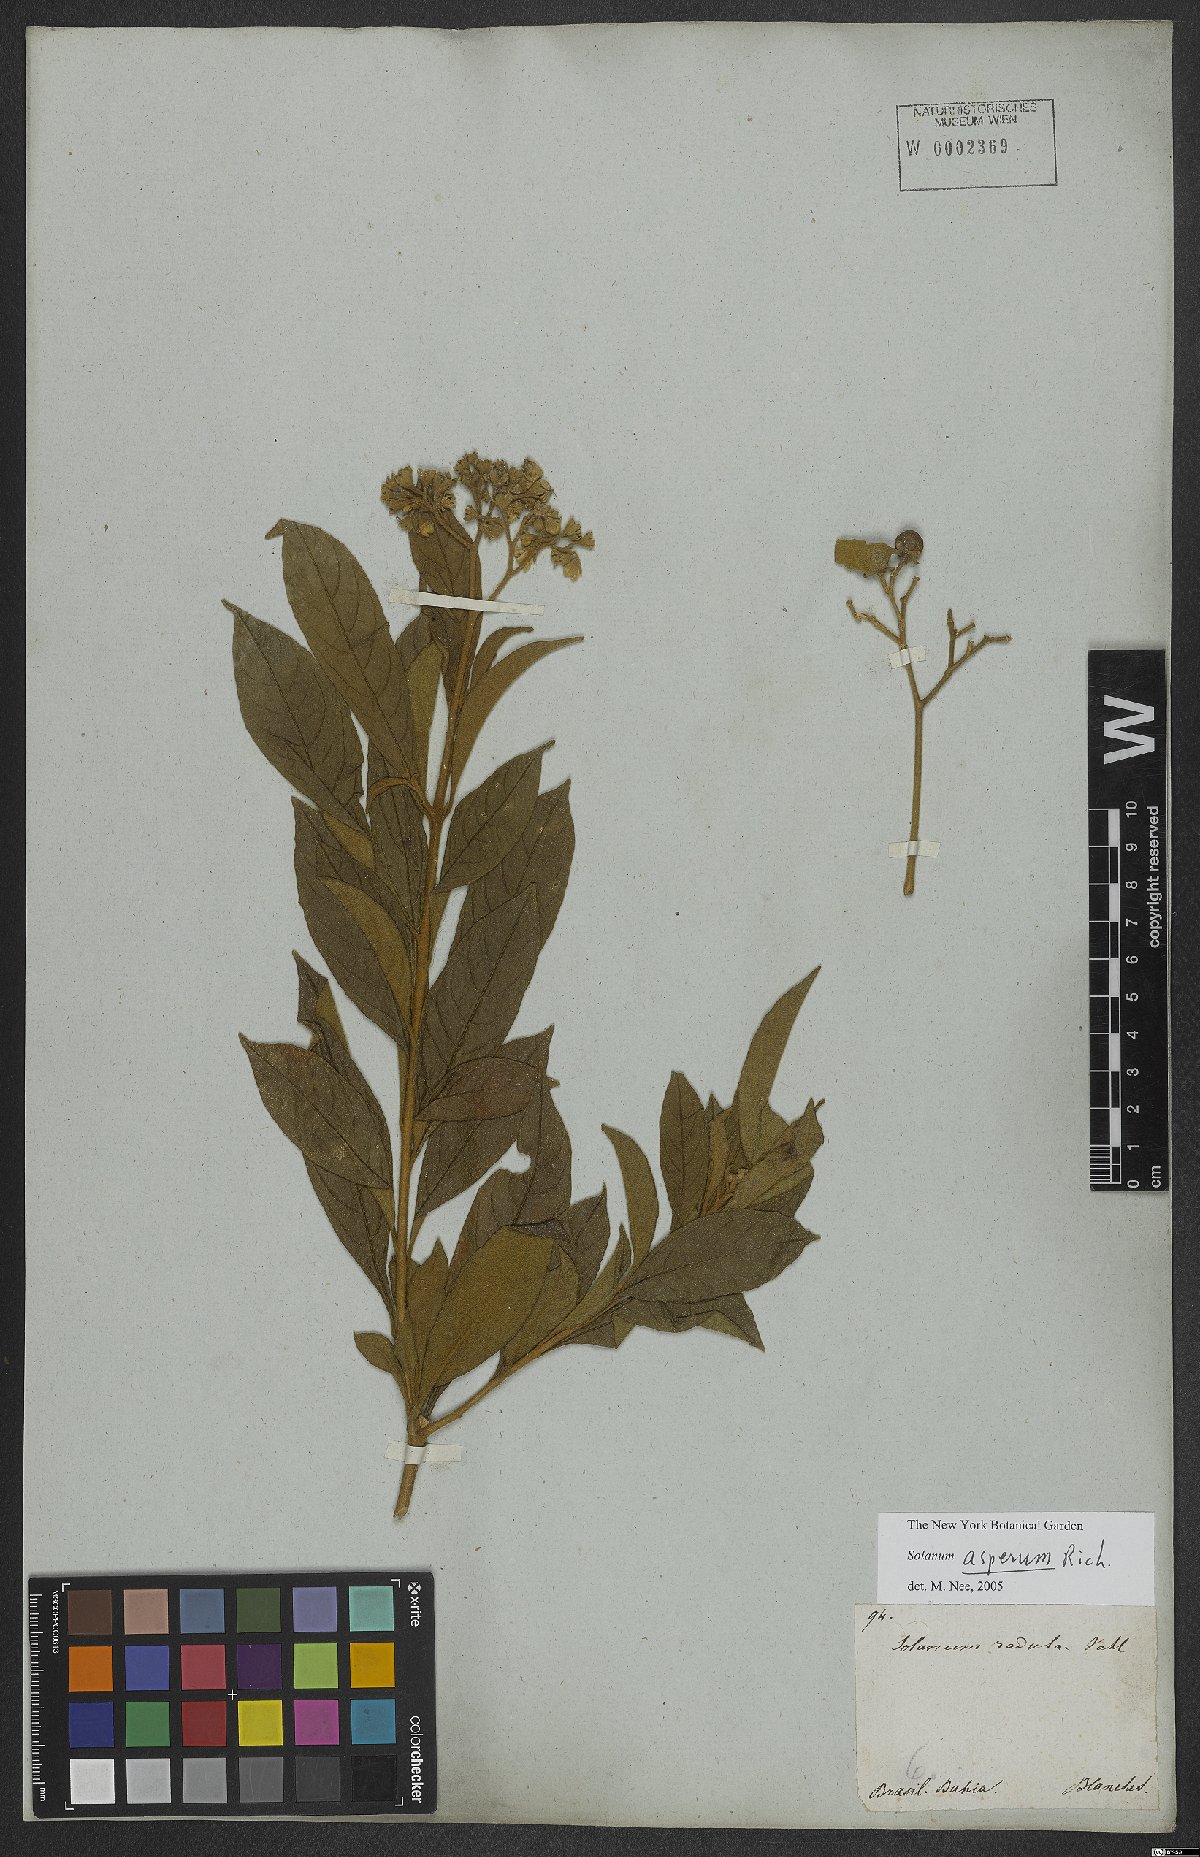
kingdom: Plantae
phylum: Tracheophyta
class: Magnoliopsida
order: Solanales
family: Solanaceae
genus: Solanum
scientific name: Solanum asperum
